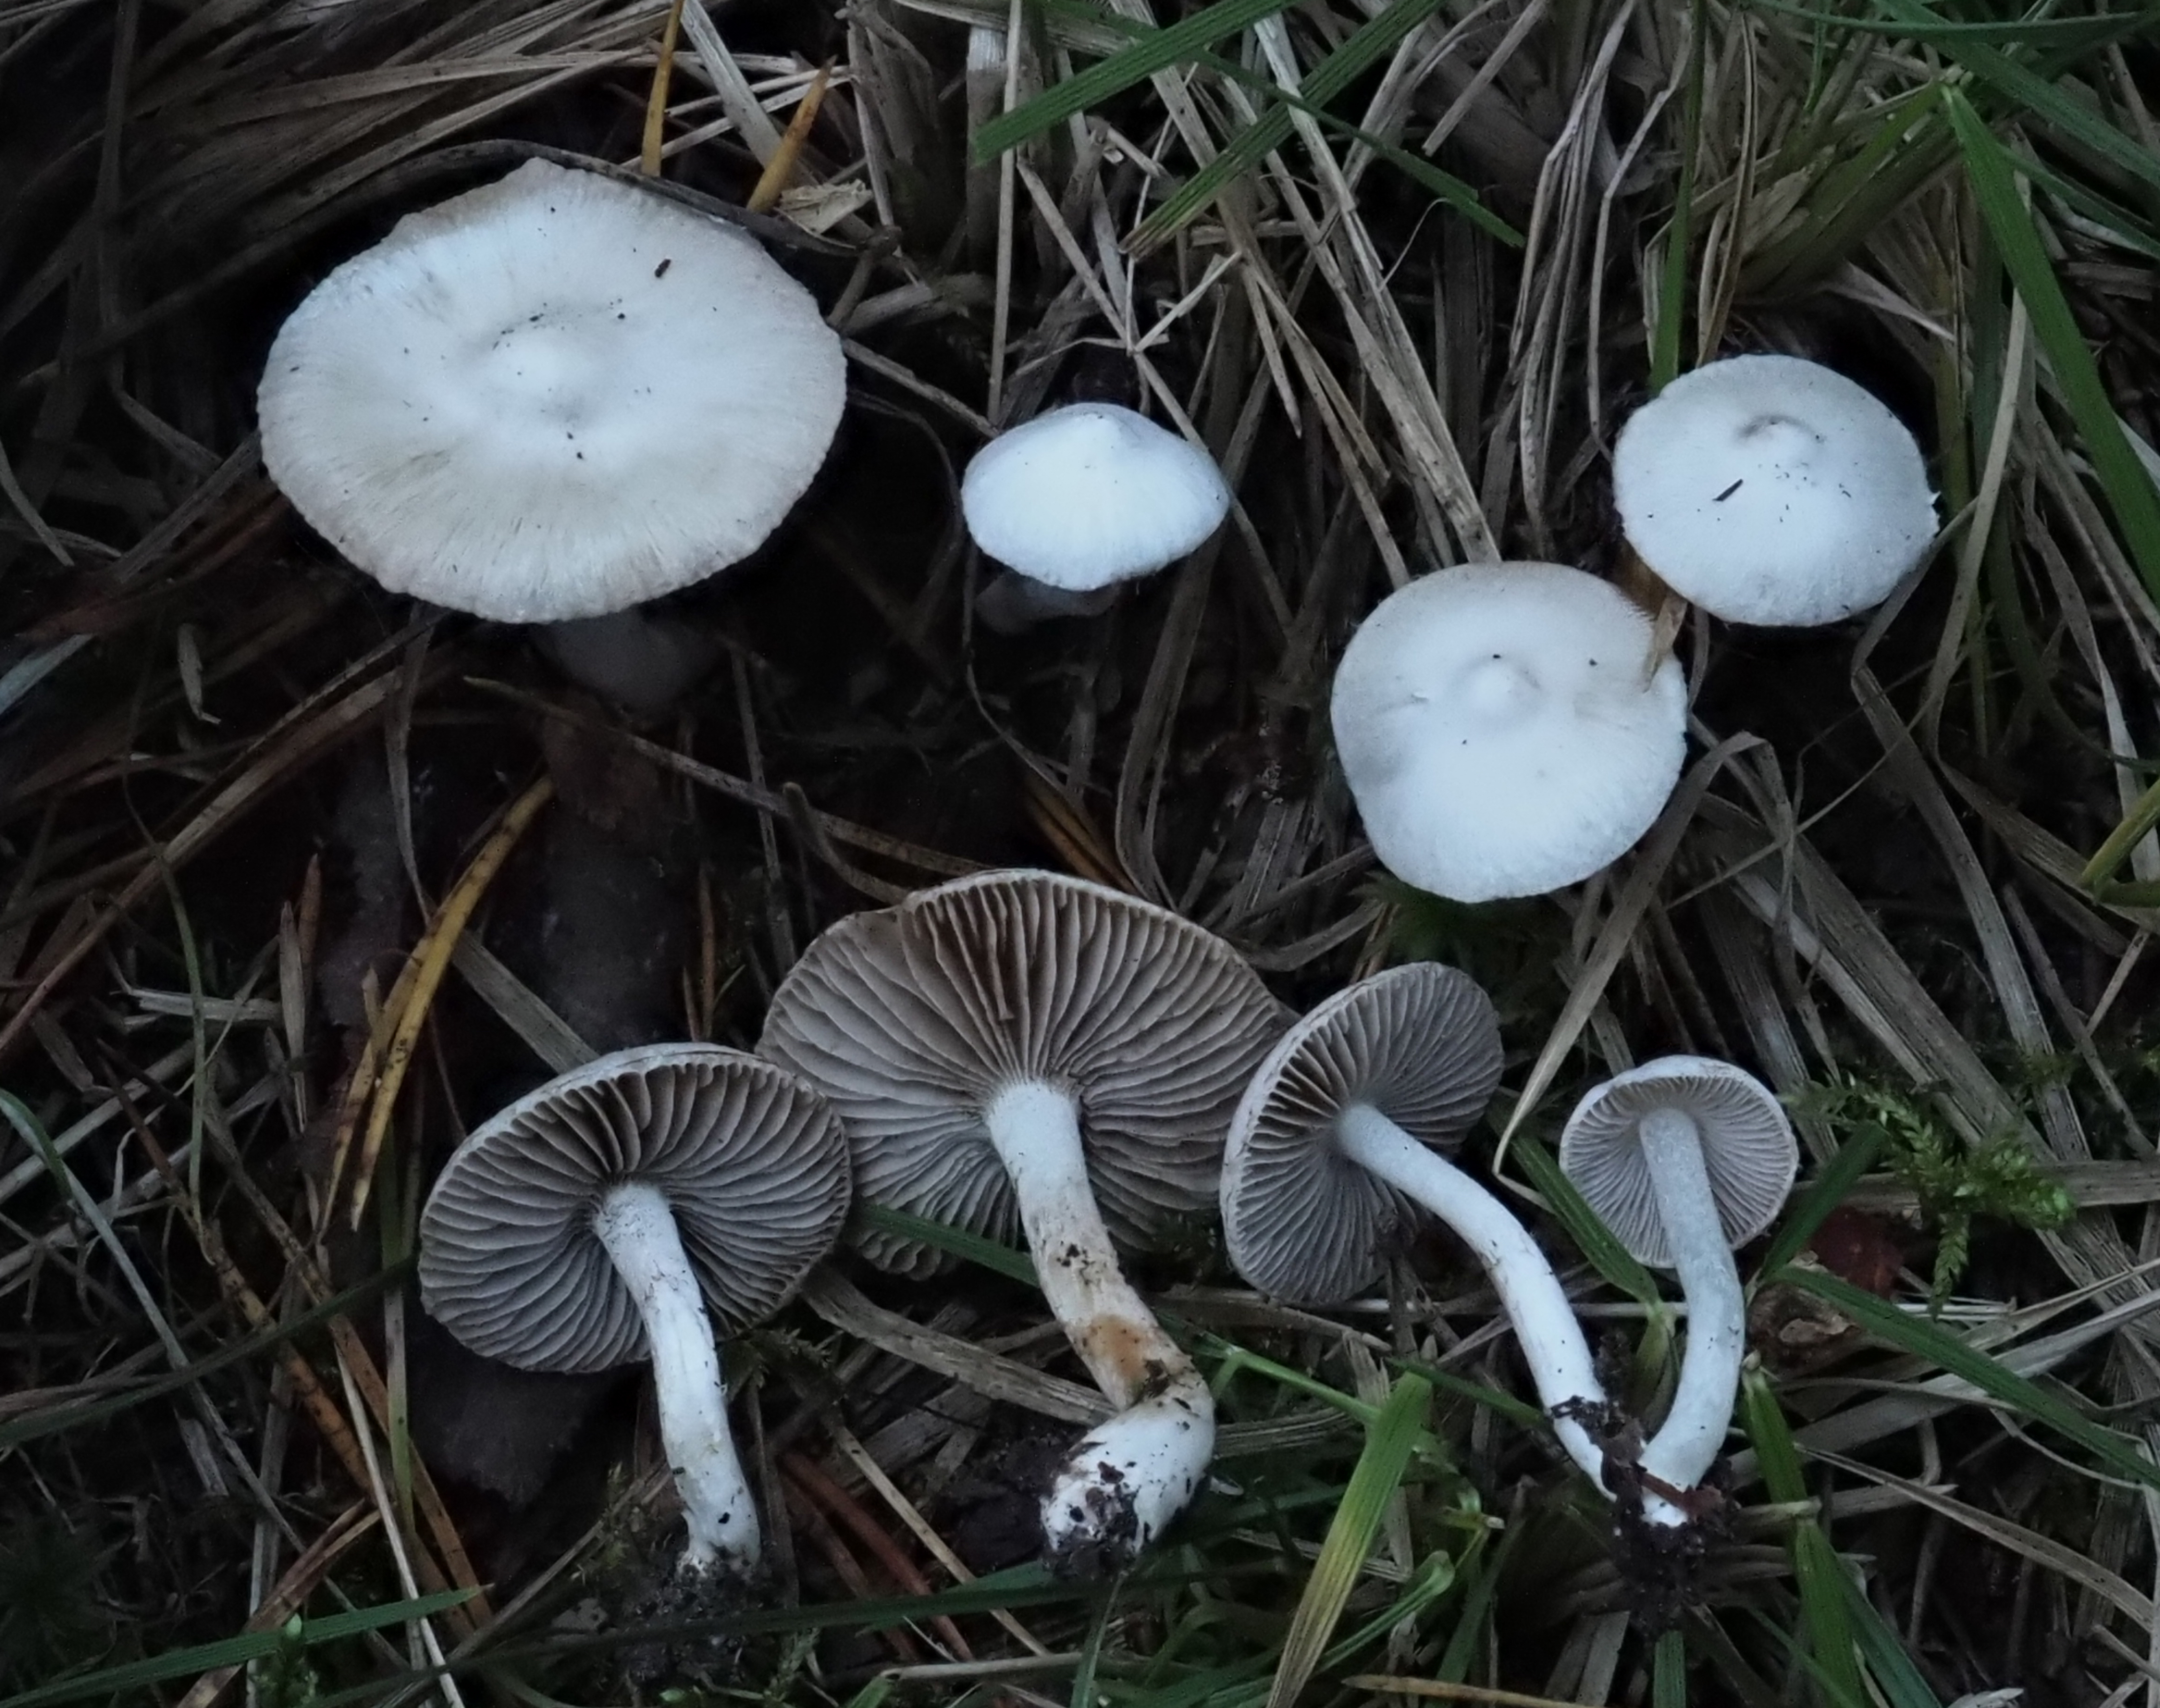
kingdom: Fungi
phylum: Basidiomycota
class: Agaricomycetes
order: Agaricales
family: Inocybaceae
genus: Inocybe
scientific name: Inocybe geophylla
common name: White fibrecap
